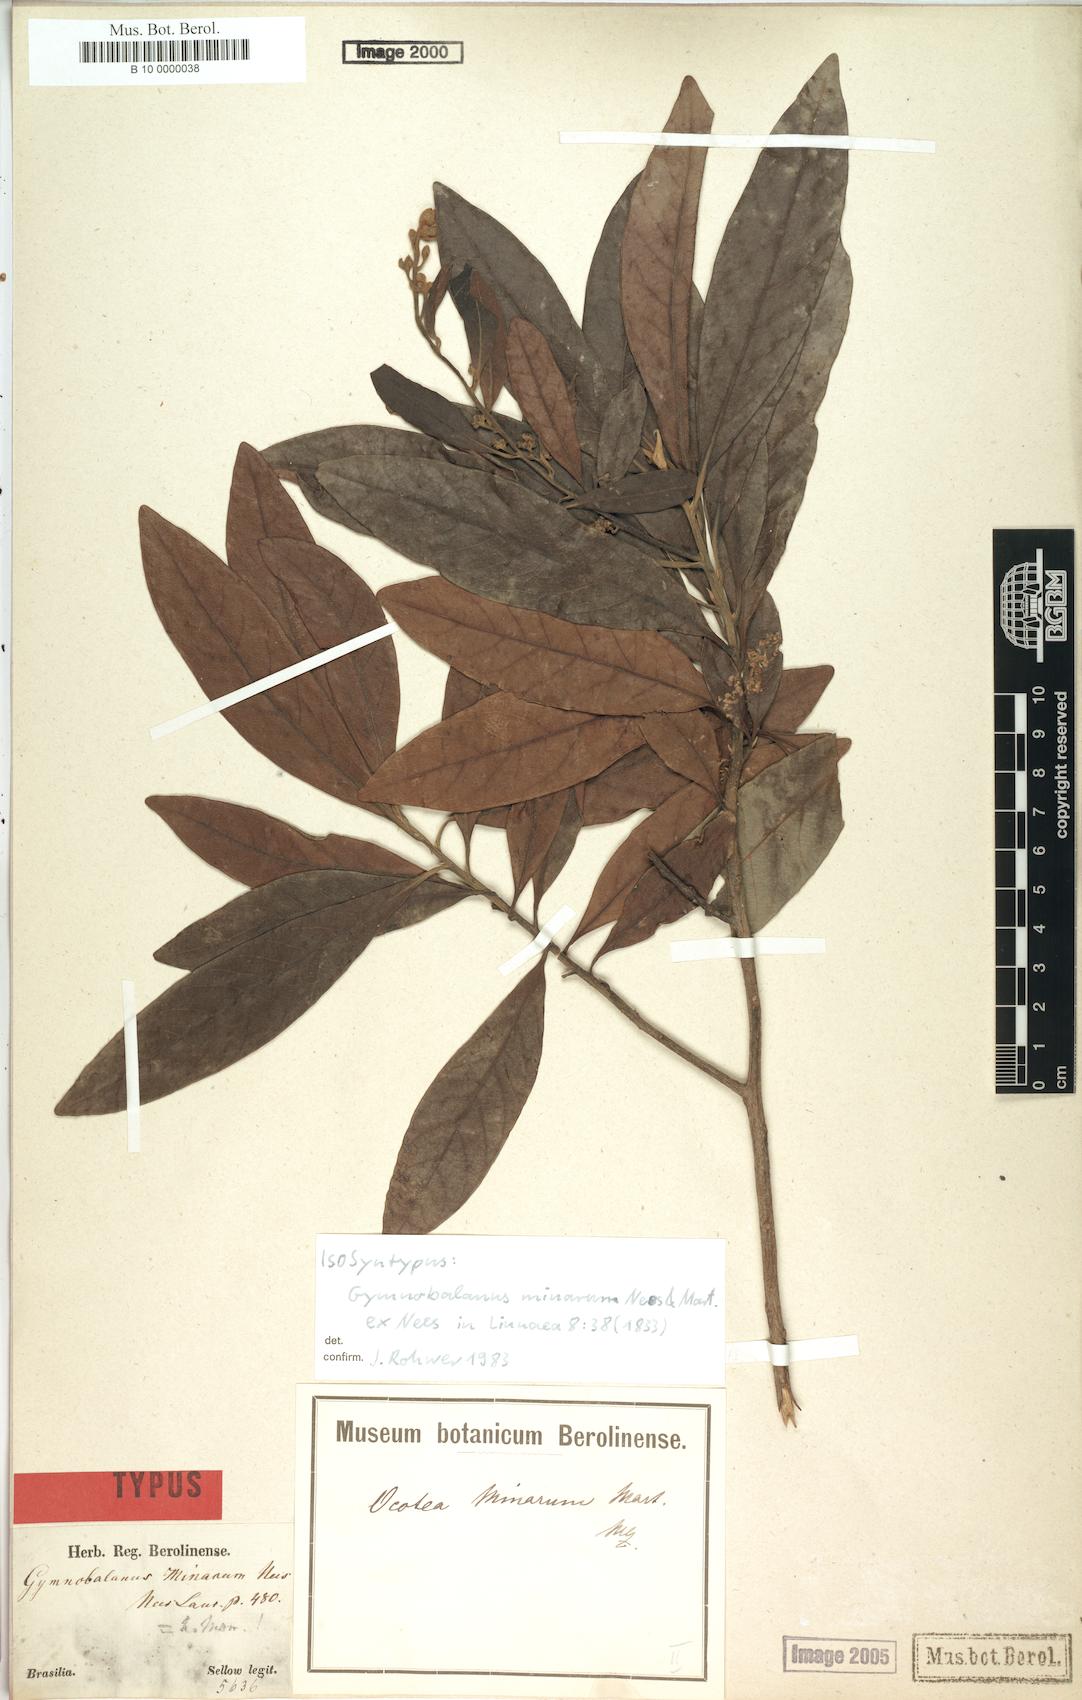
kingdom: Plantae
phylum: Tracheophyta
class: Magnoliopsida
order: Laurales
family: Lauraceae
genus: Ocotea
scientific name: Ocotea minarum
